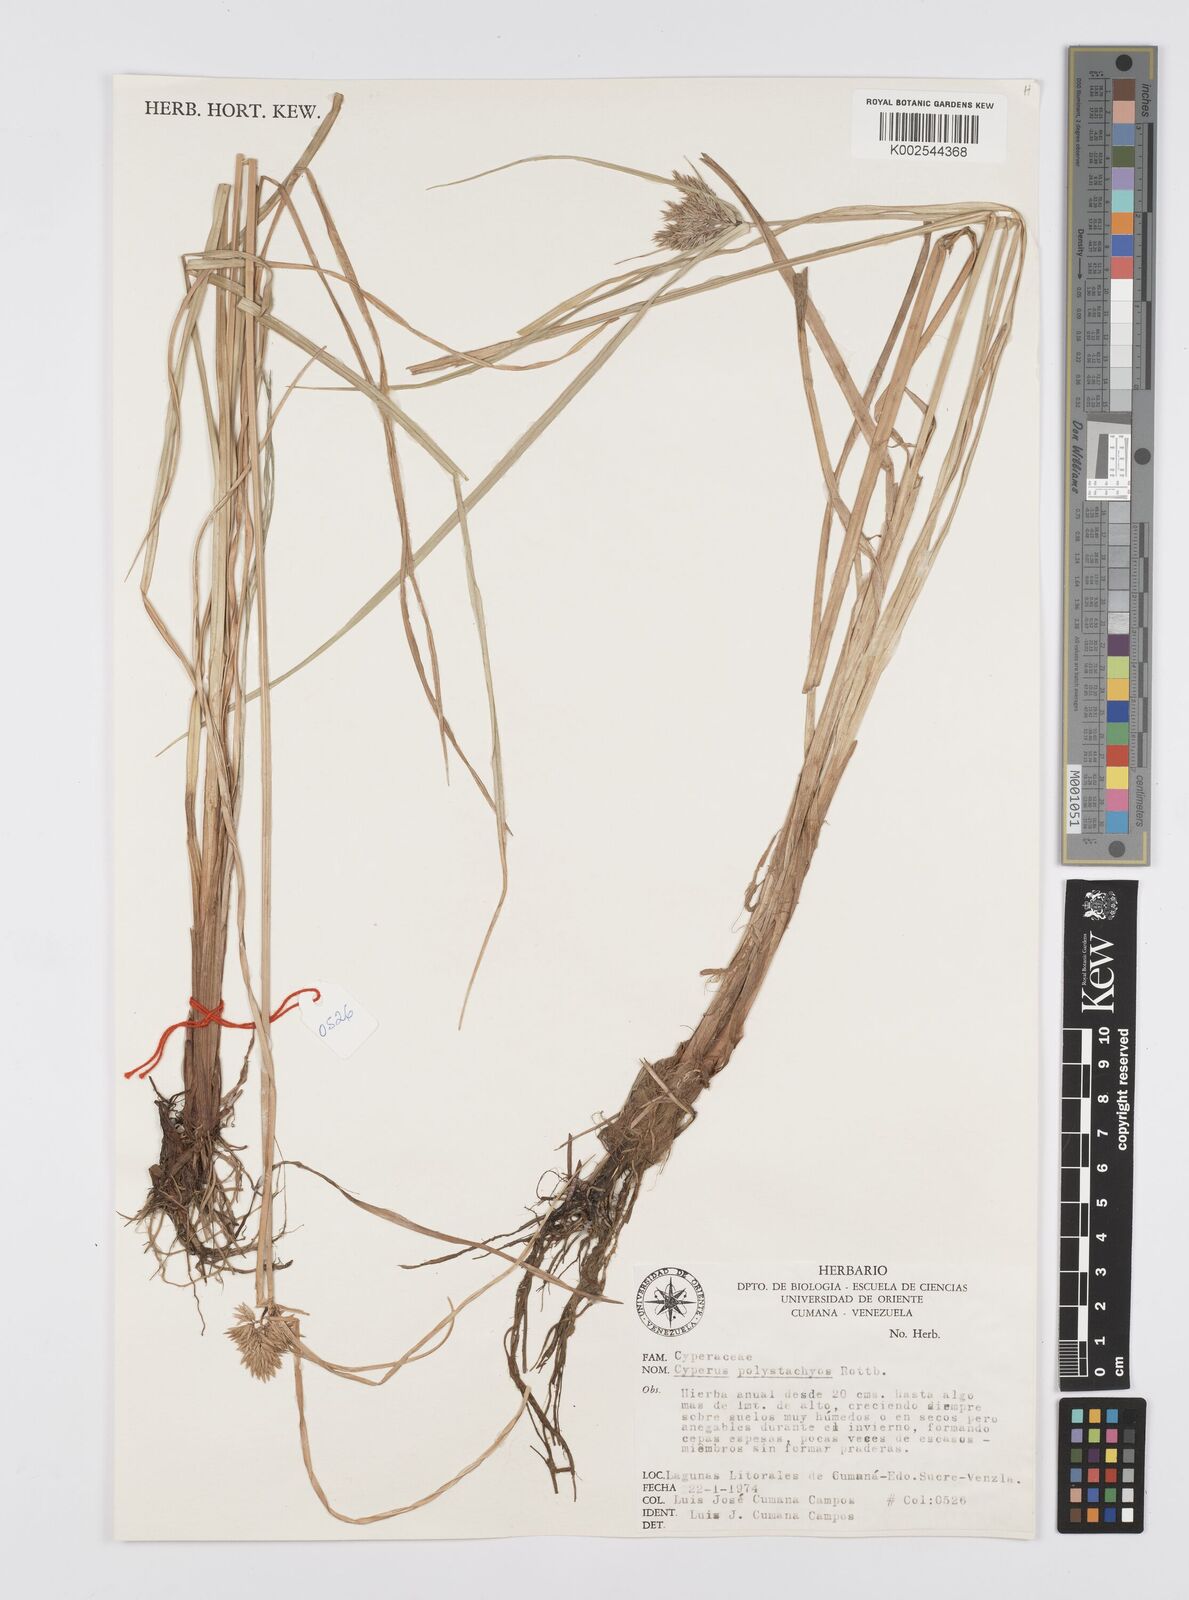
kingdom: Plantae
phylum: Tracheophyta
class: Liliopsida
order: Poales
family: Cyperaceae
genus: Cyperus
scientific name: Cyperus polystachyos
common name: Bunchy flat sedge
